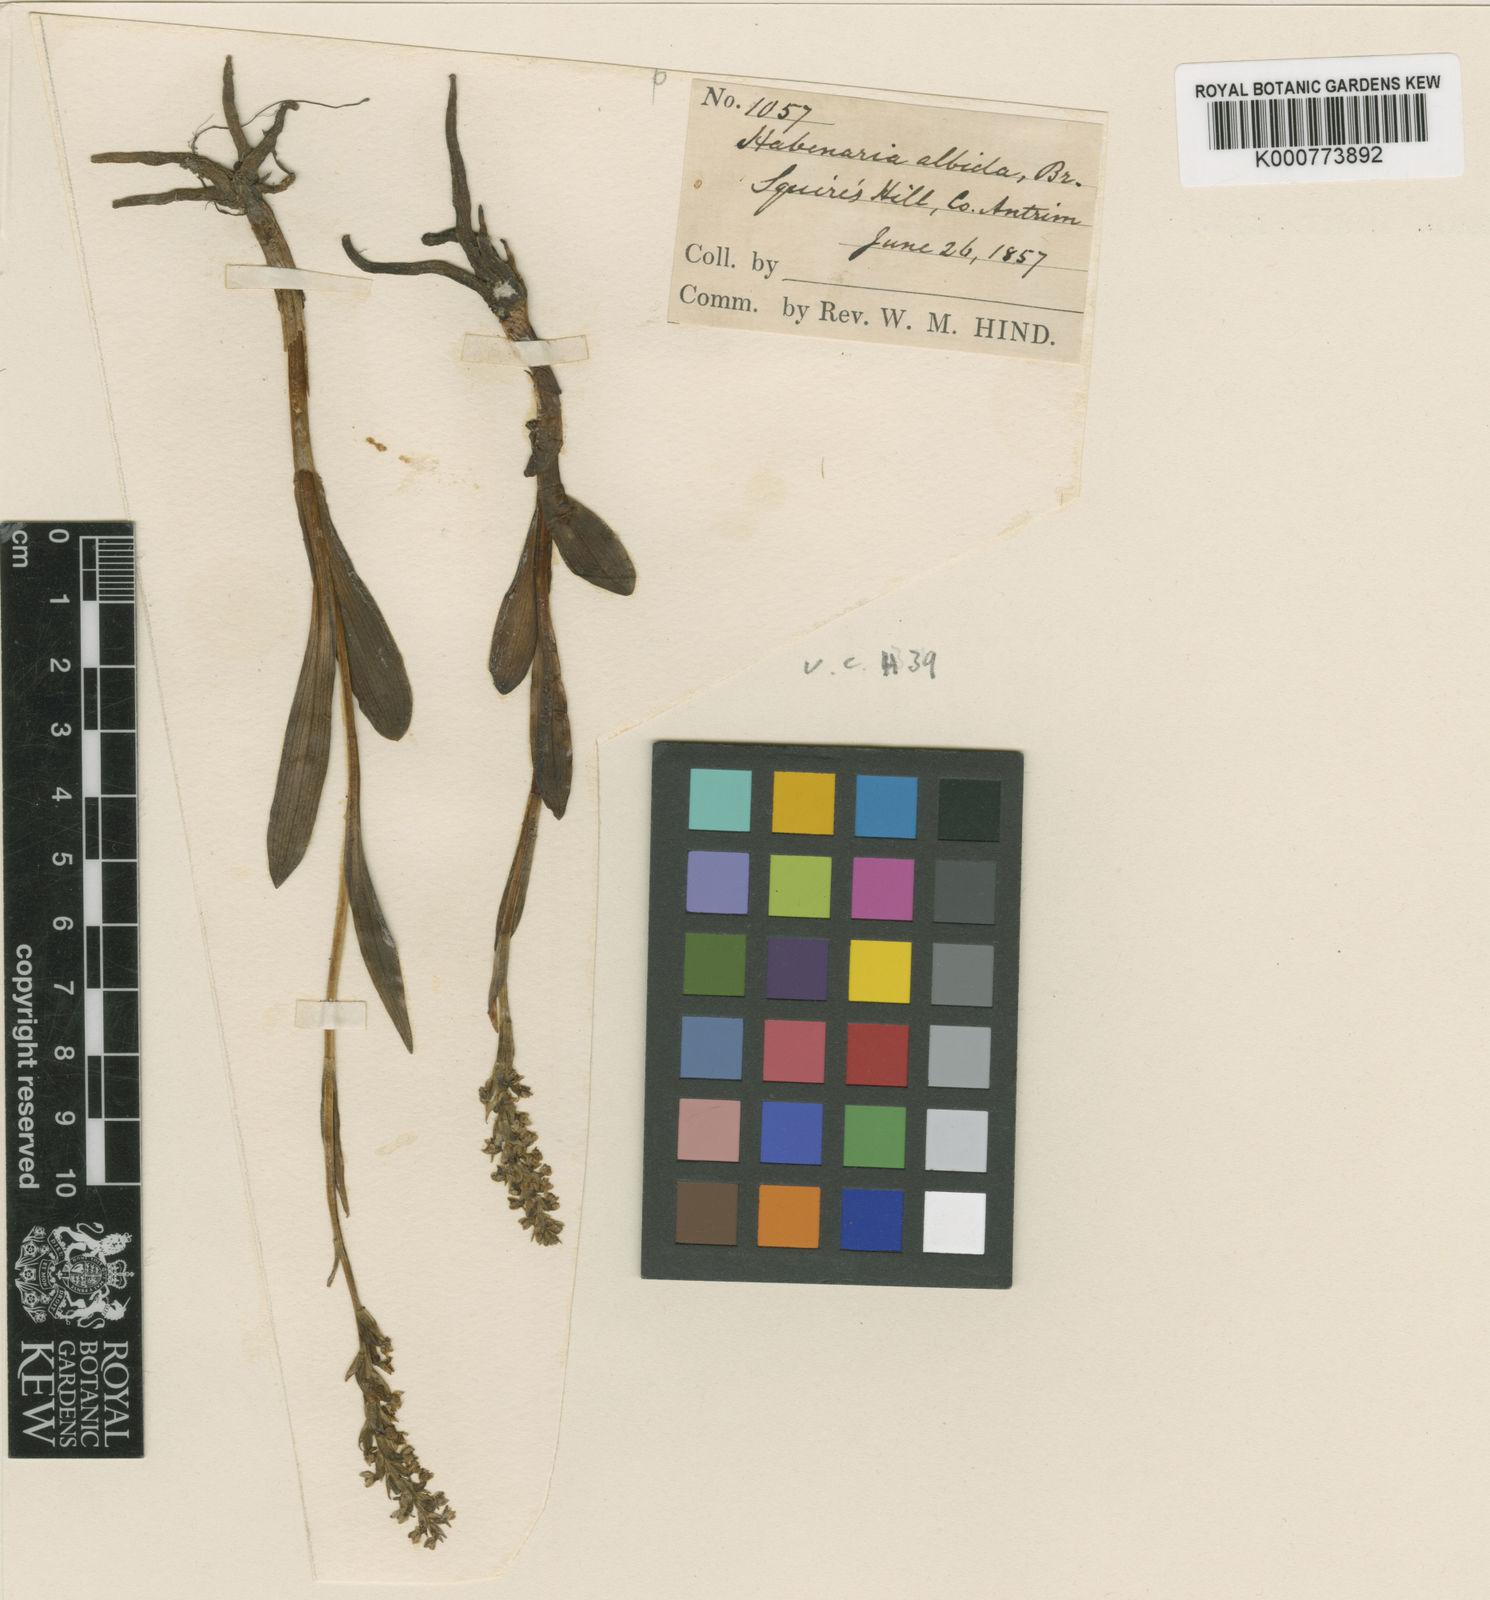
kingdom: Plantae
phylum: Tracheophyta
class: Liliopsida
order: Asparagales
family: Orchidaceae
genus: Pseudorchis
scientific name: Pseudorchis
